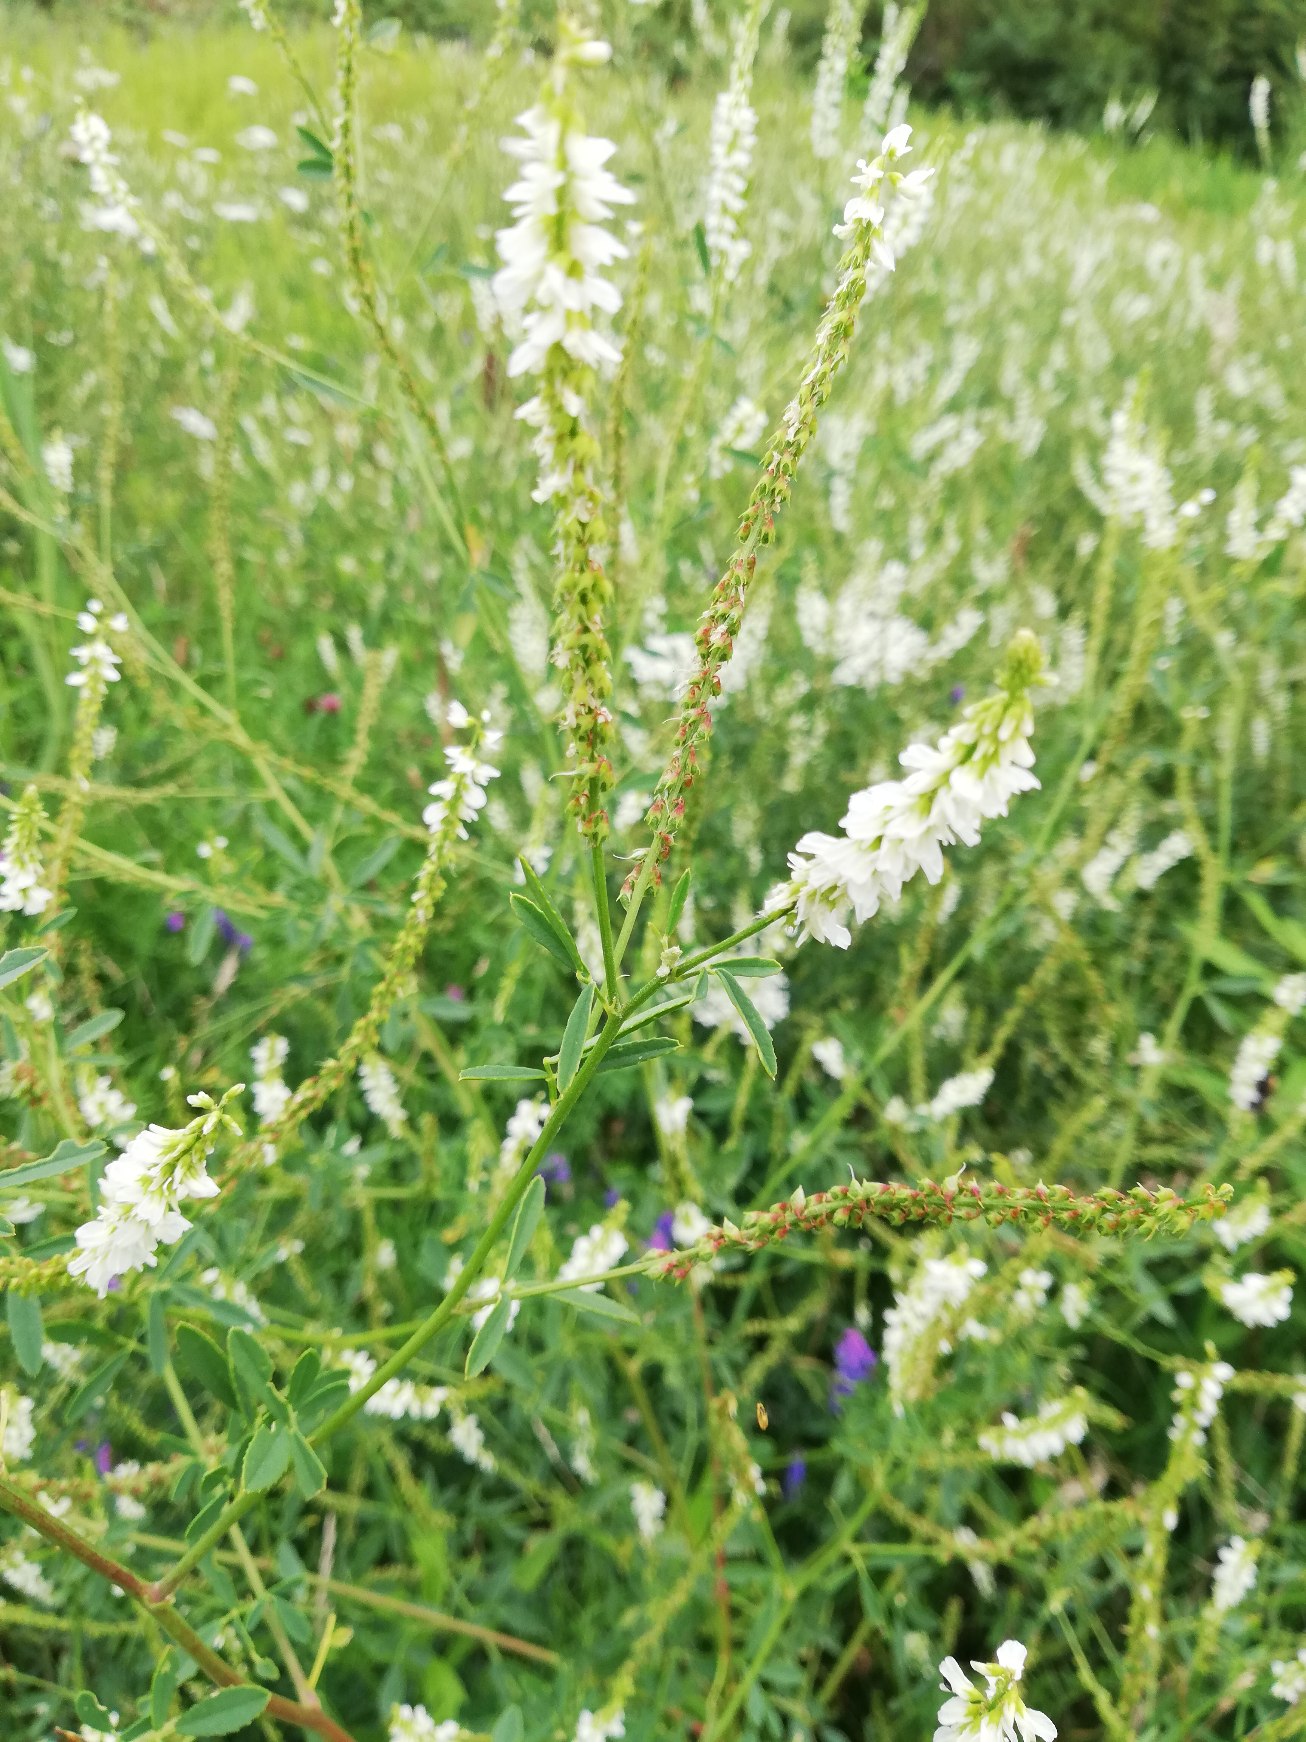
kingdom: Plantae
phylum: Tracheophyta
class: Magnoliopsida
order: Fabales
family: Fabaceae
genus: Melilotus
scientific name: Melilotus albus
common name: Hvid stenkløver
